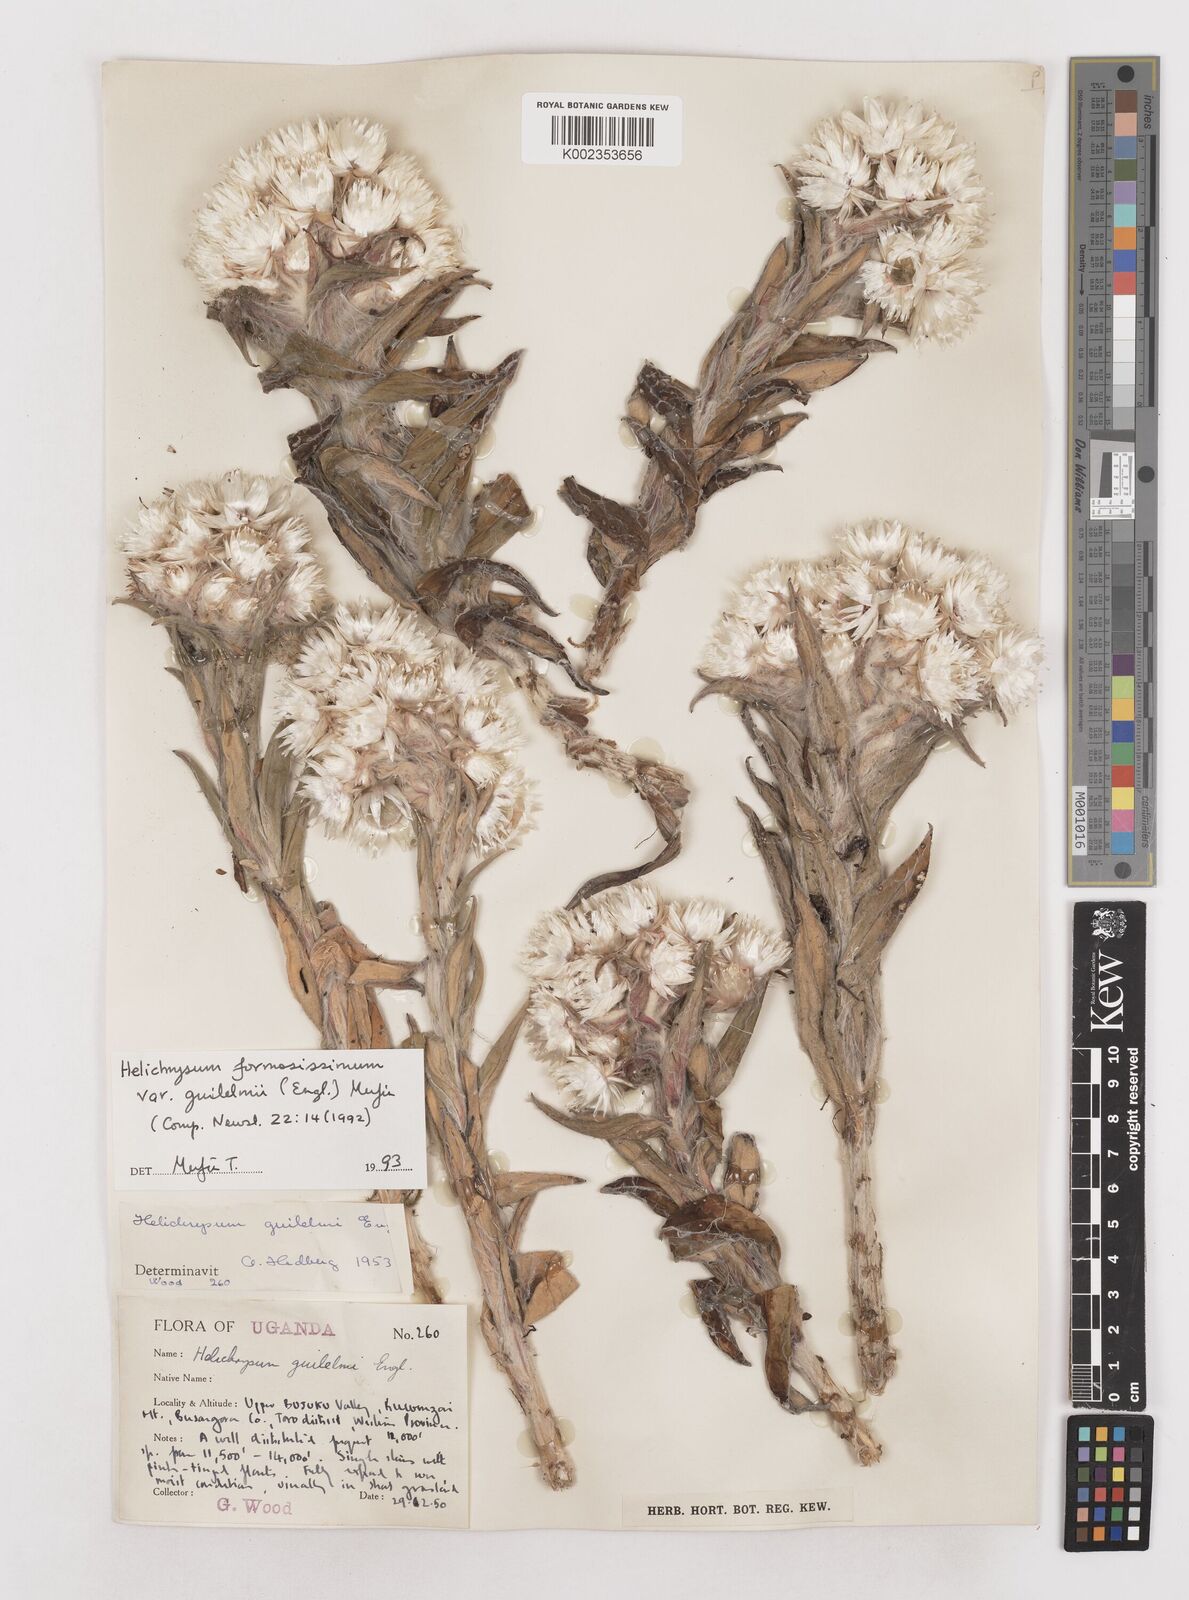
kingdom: Plantae
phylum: Tracheophyta
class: Magnoliopsida
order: Asterales
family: Asteraceae
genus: Helichrysum
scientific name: Helichrysum formosissimum
